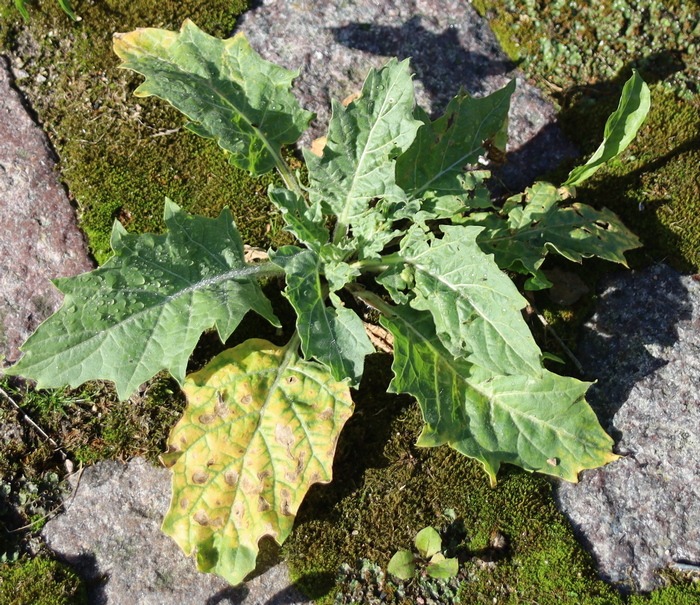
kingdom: Plantae
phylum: Tracheophyta
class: Magnoliopsida
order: Solanales
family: Solanaceae
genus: Hyoscyamus
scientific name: Hyoscyamus niger
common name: Bulmeurt
